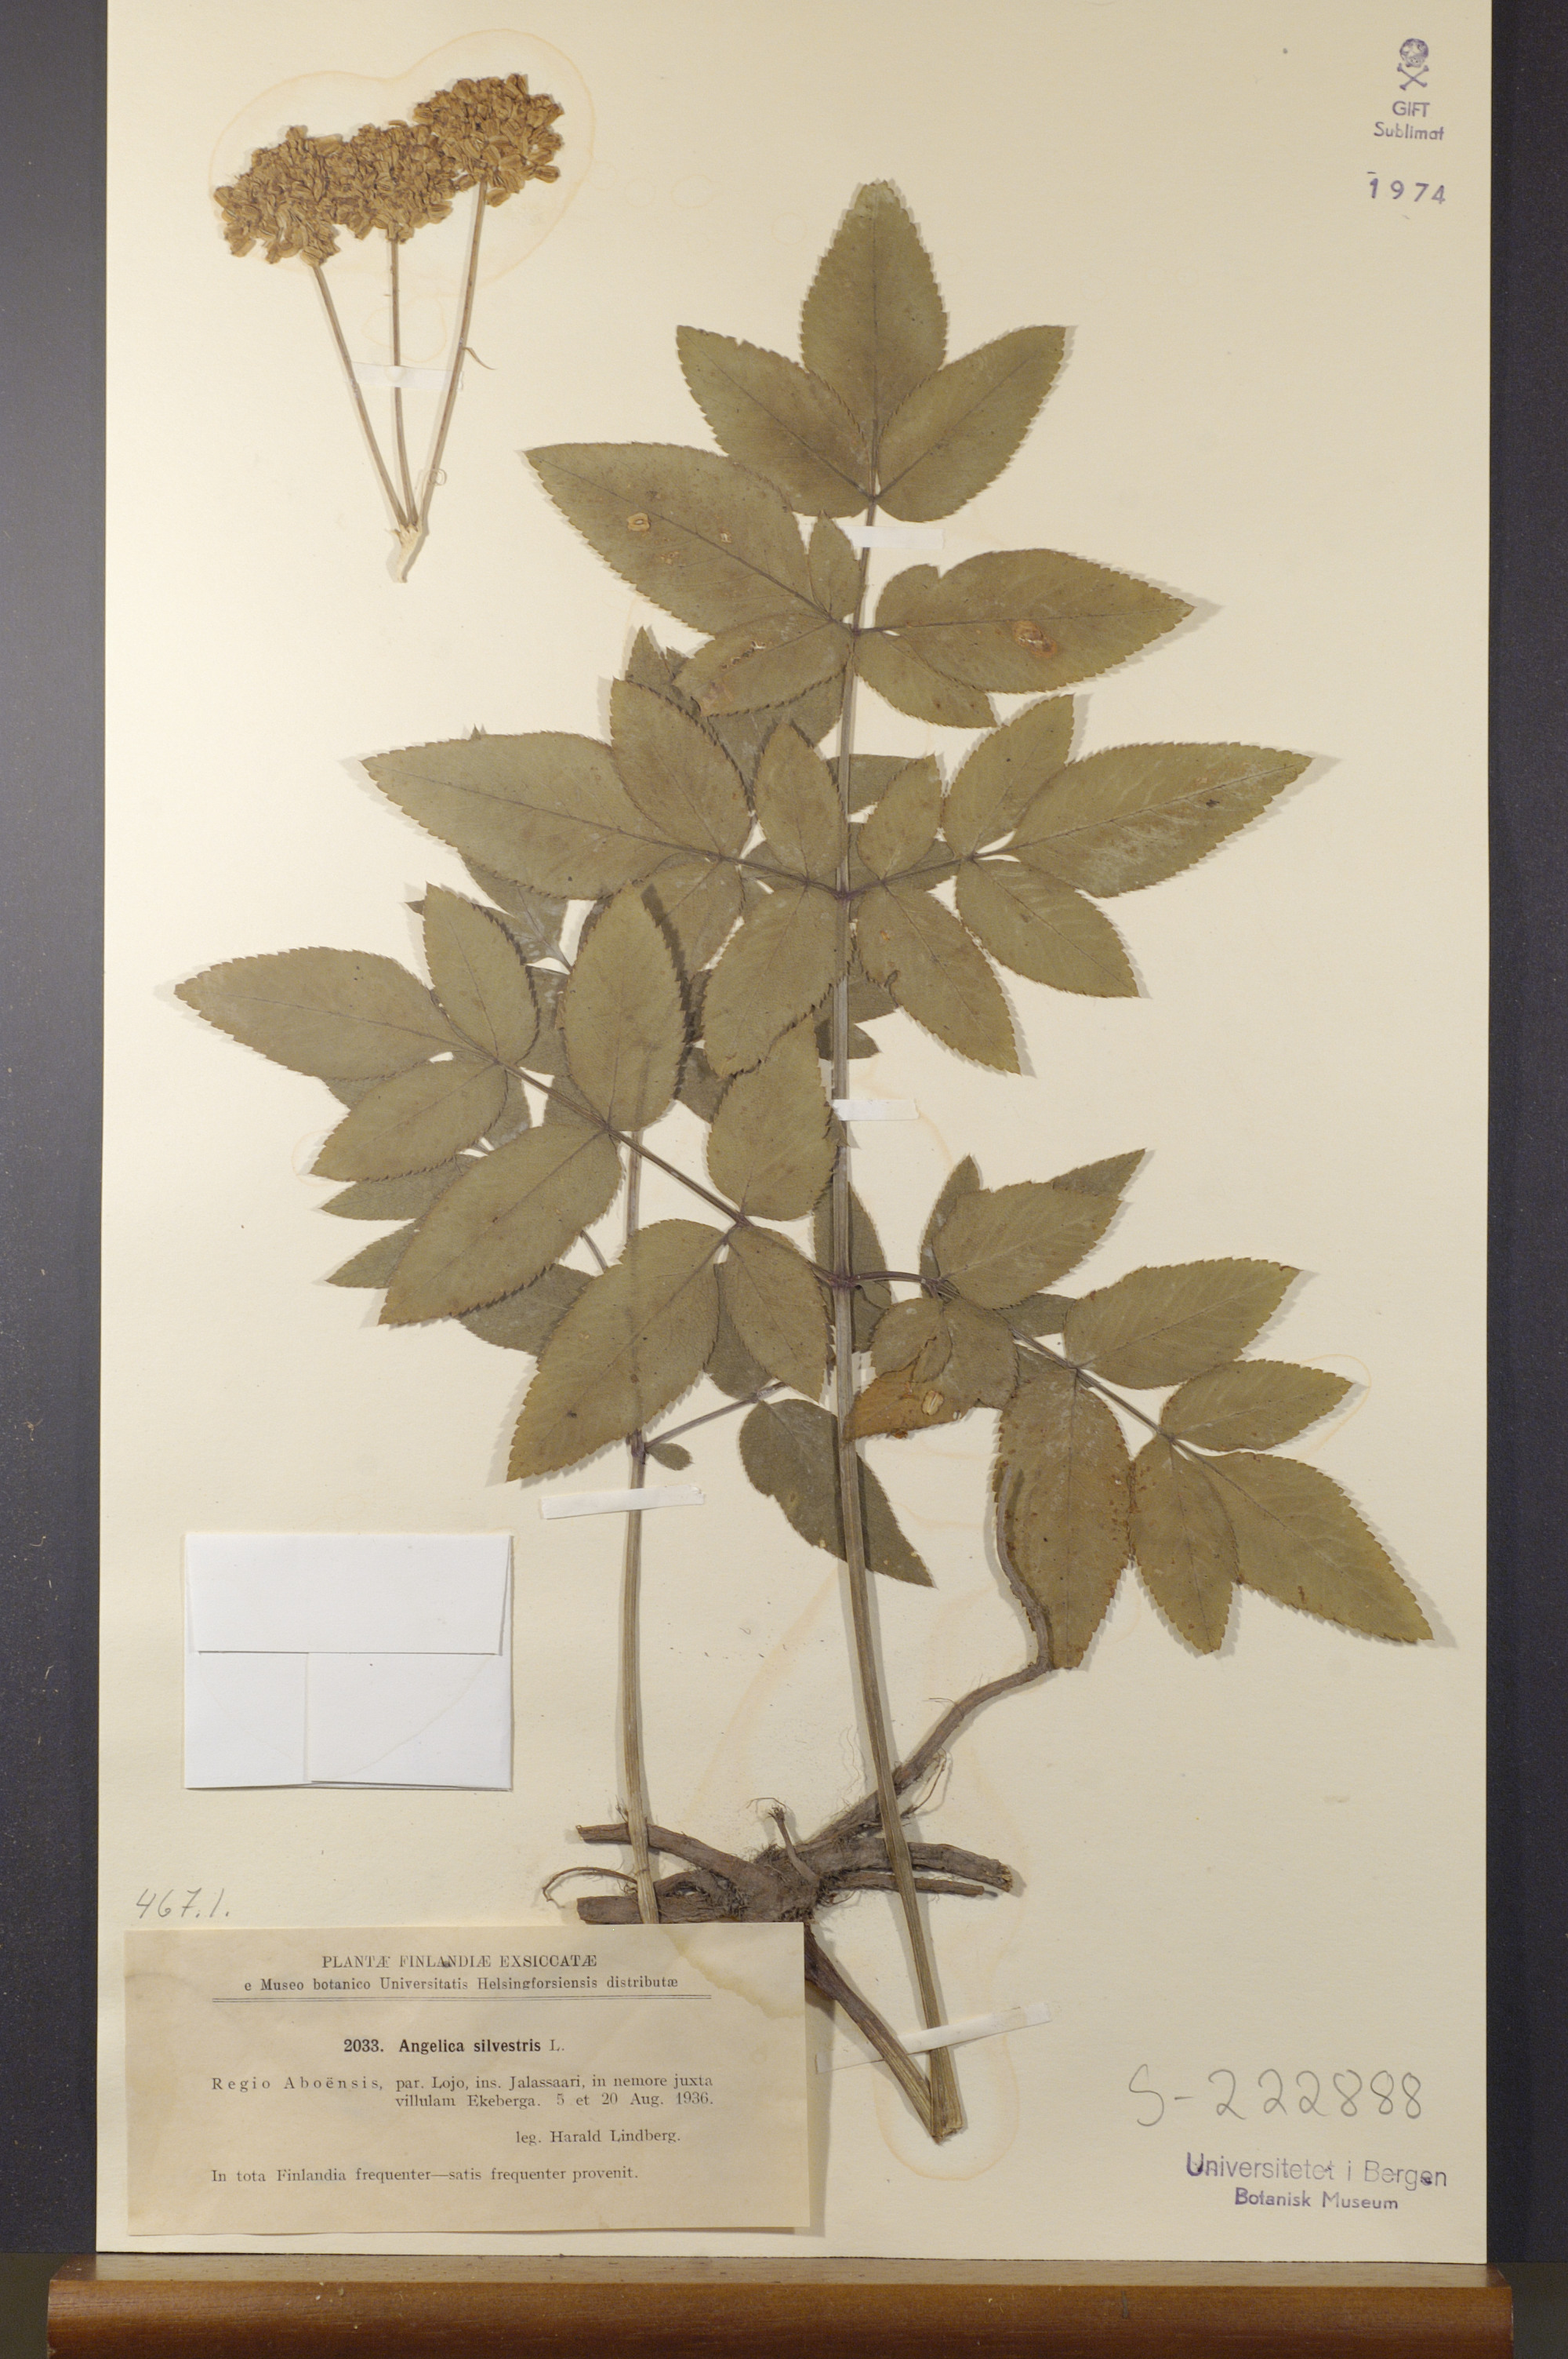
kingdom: Plantae
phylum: Tracheophyta
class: Magnoliopsida
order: Apiales
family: Apiaceae
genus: Angelica
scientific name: Angelica sylvestris
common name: Wild angelica
